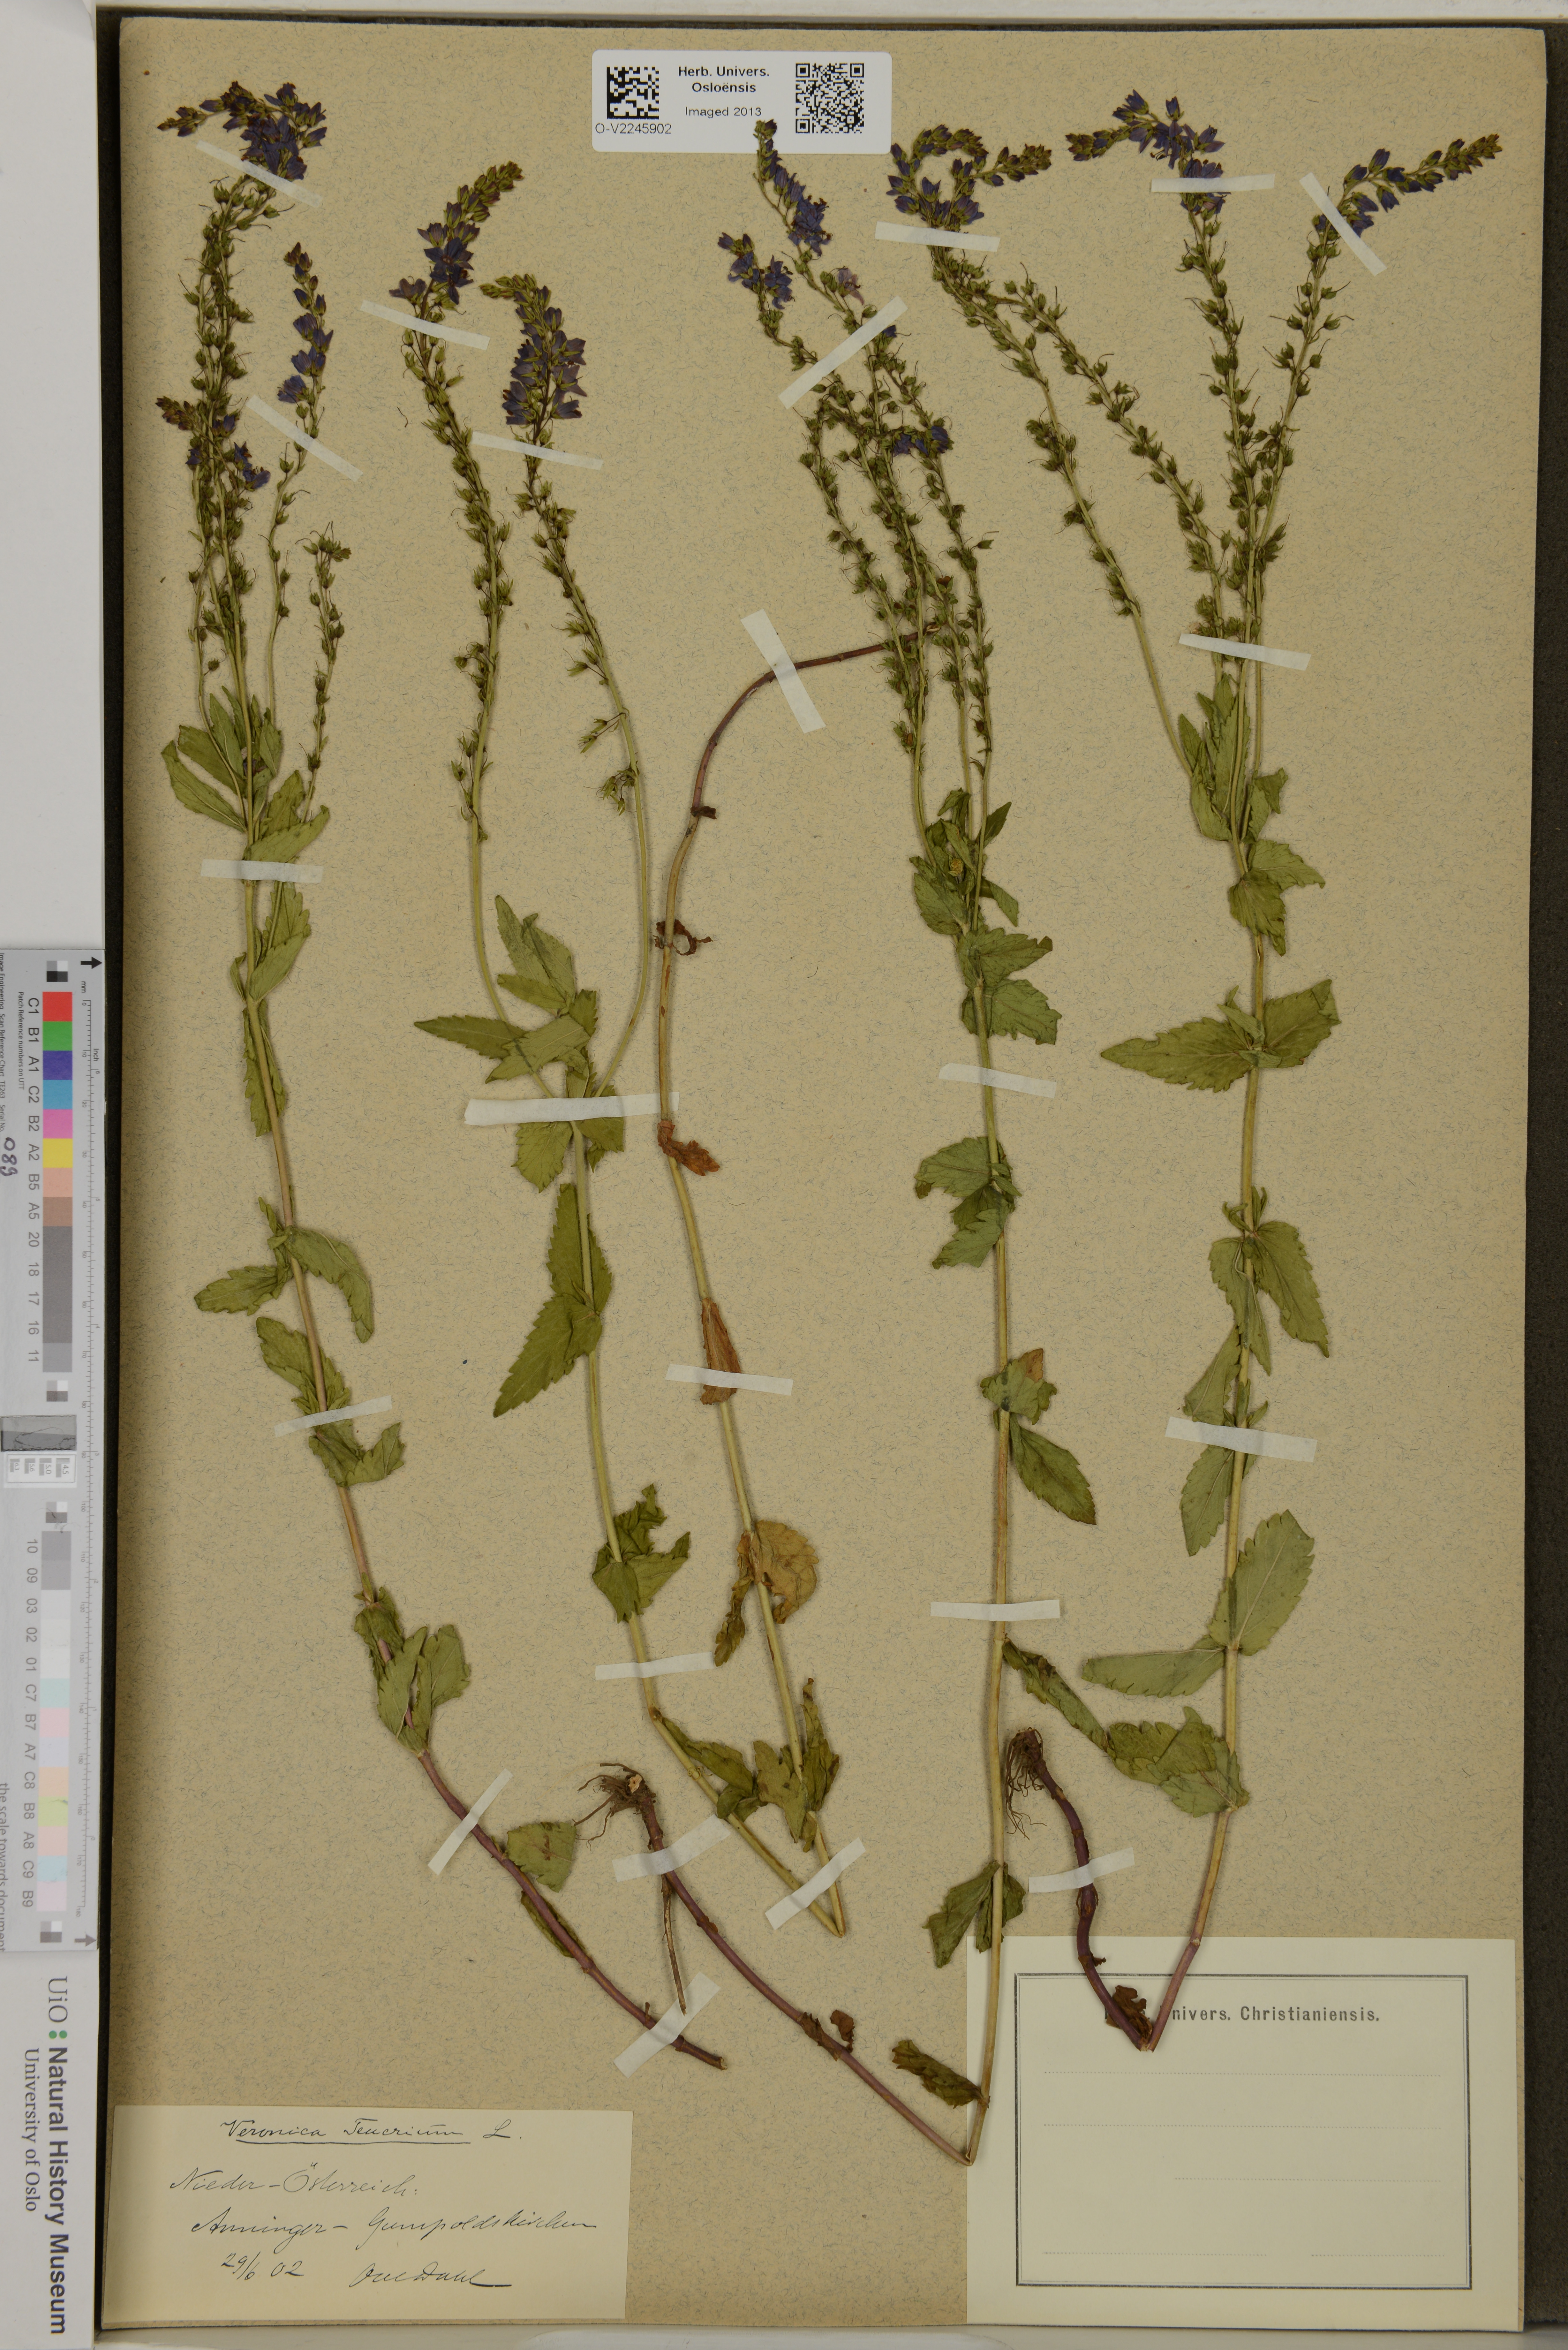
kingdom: Plantae
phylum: Tracheophyta
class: Magnoliopsida
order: Lamiales
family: Plantaginaceae
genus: Veronica
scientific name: Veronica teucrium
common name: Large speedwell
